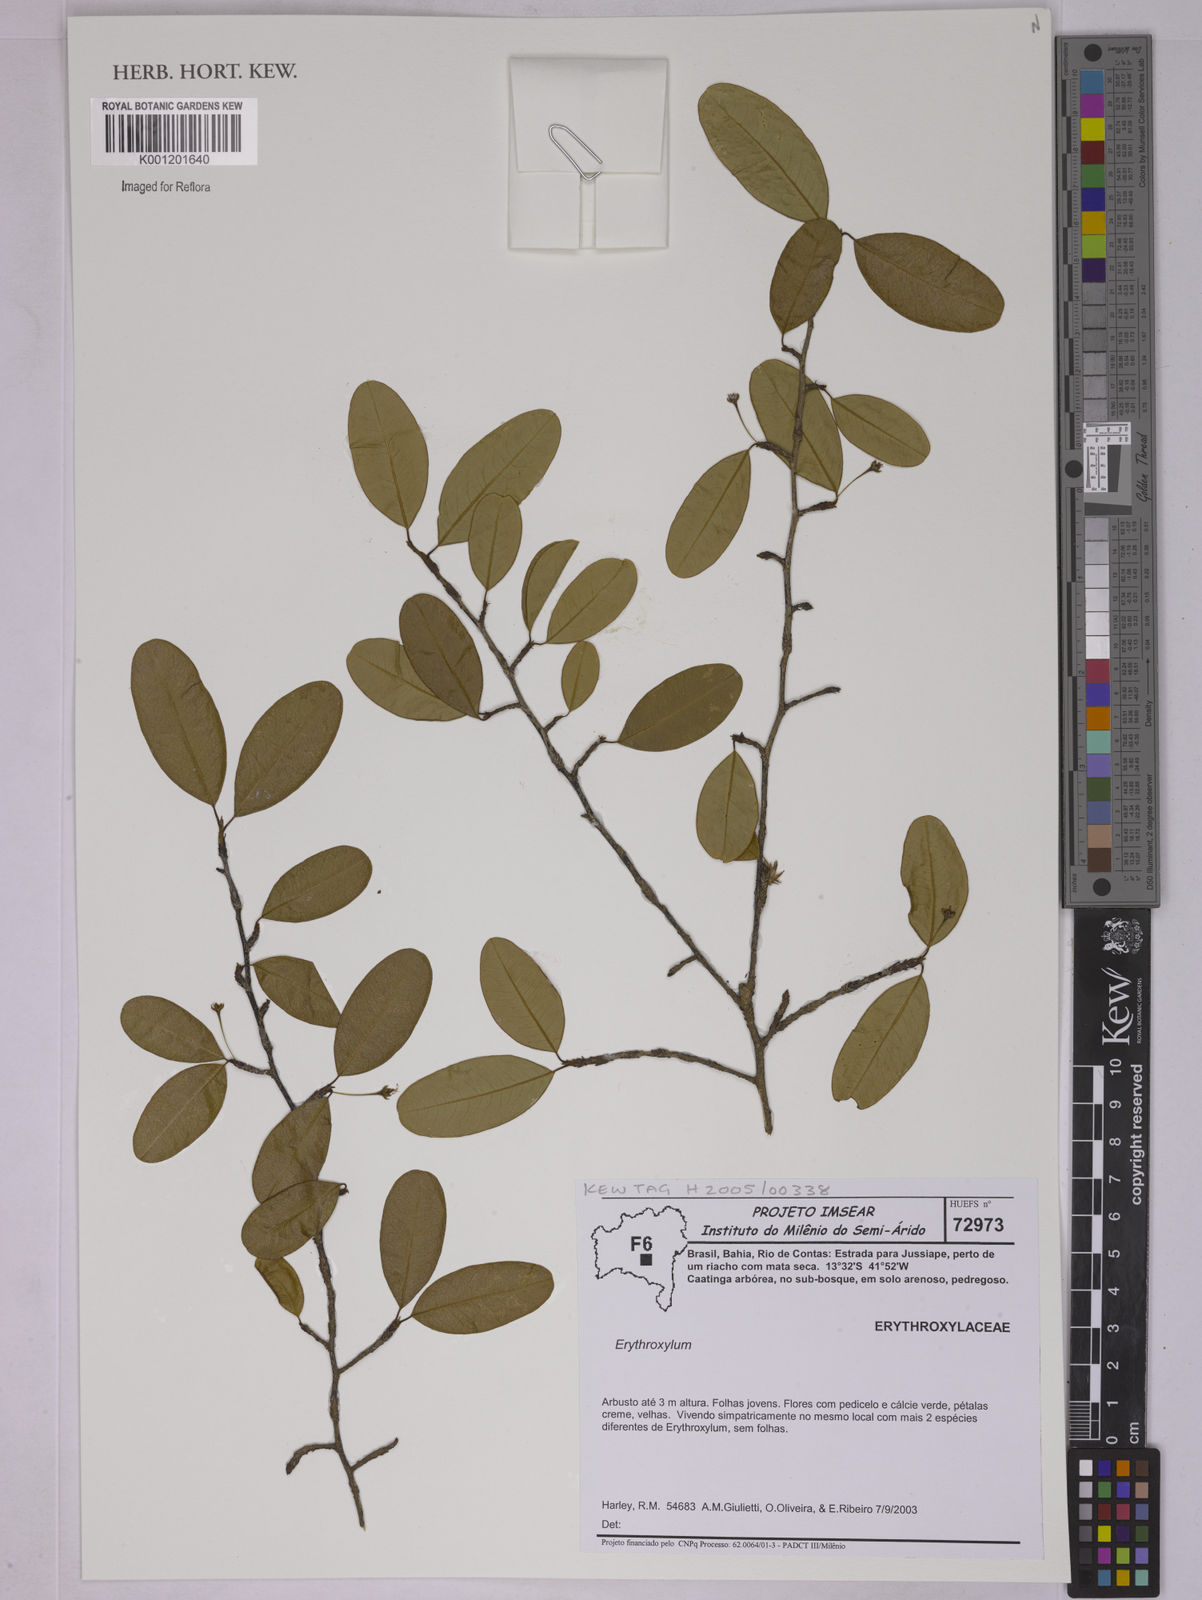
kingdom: Plantae
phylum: Tracheophyta
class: Magnoliopsida
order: Malpighiales
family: Erythroxylaceae
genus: Erythroxylum
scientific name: Erythroxylum
